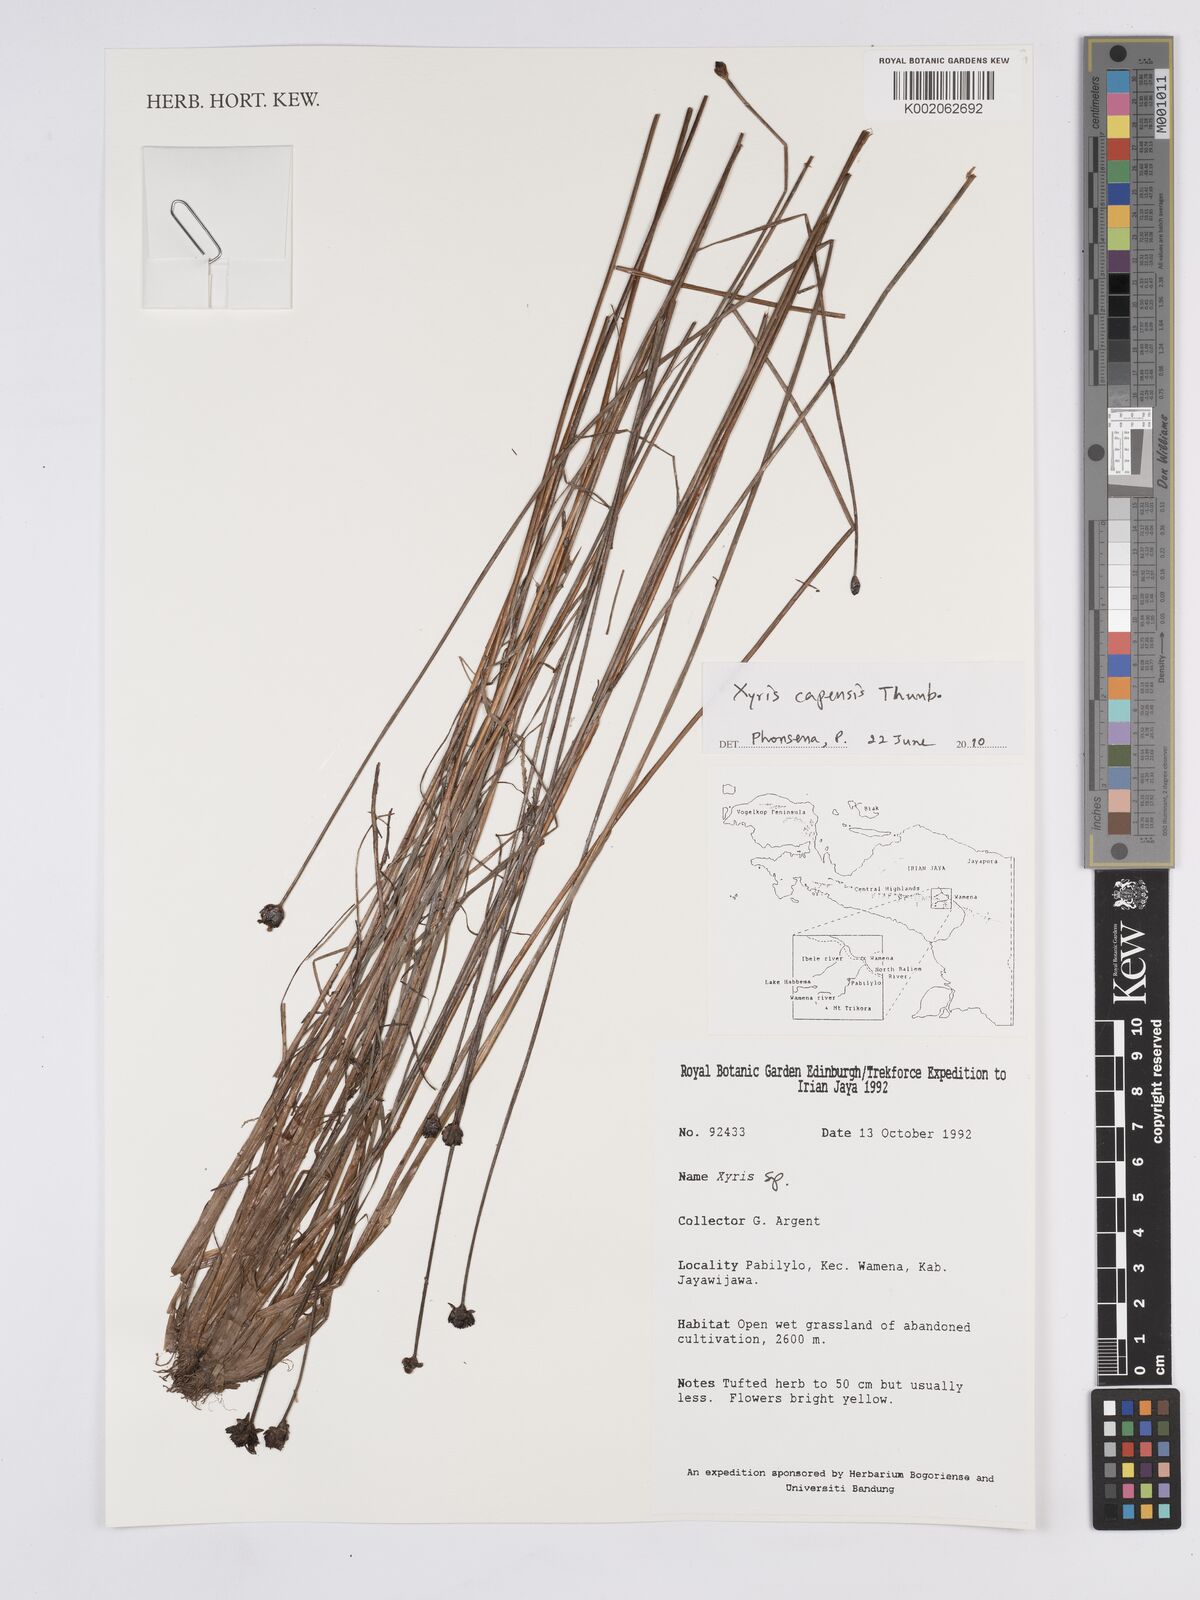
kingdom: Plantae
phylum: Tracheophyta
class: Liliopsida
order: Poales
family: Xyridaceae
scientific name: Xyridaceae
